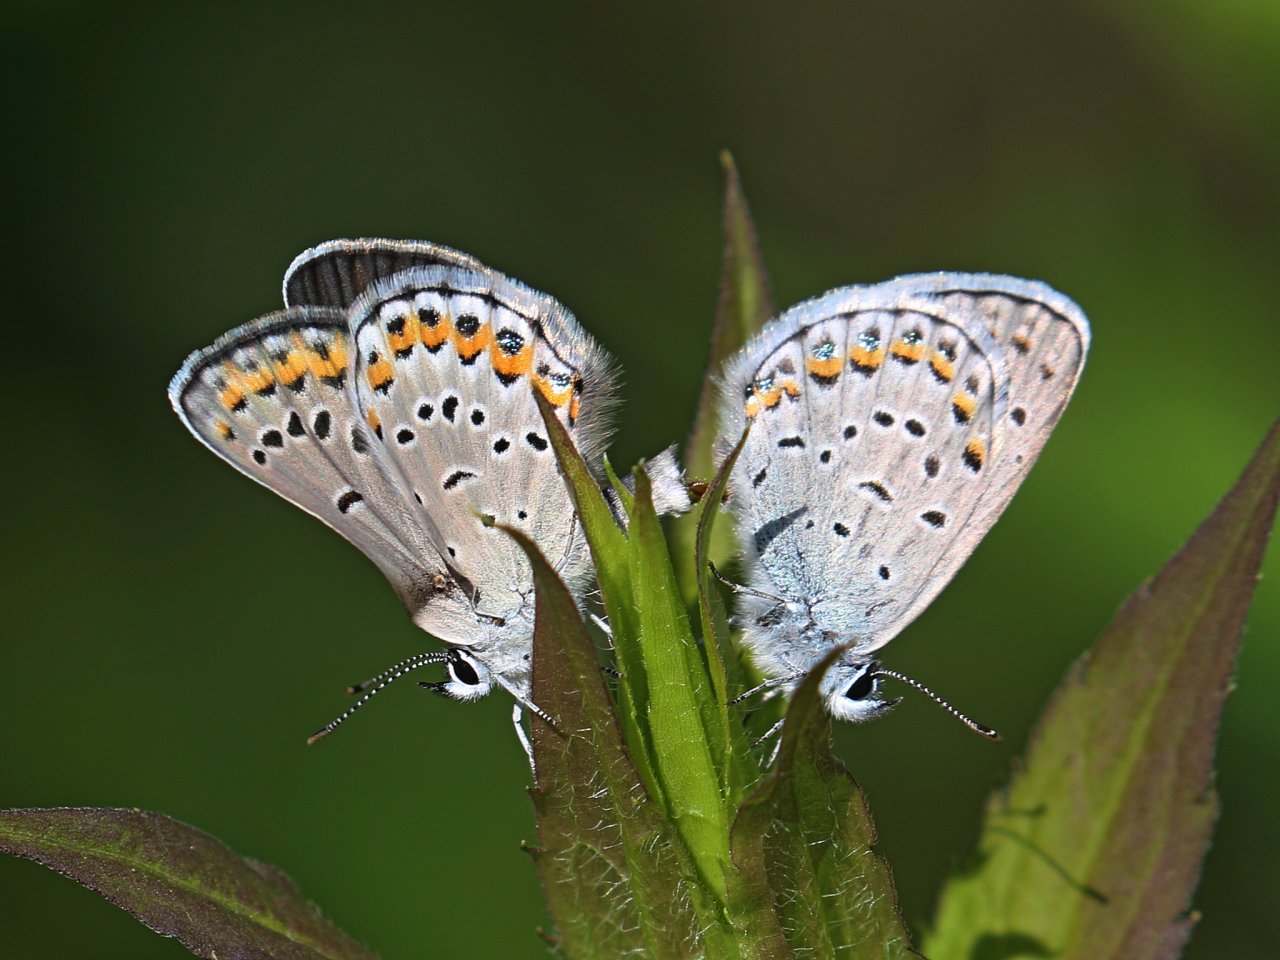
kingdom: Animalia
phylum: Arthropoda
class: Insecta
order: Lepidoptera
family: Lycaenidae
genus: Plebejus
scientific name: Plebejus samuelis
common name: Karner Blue
